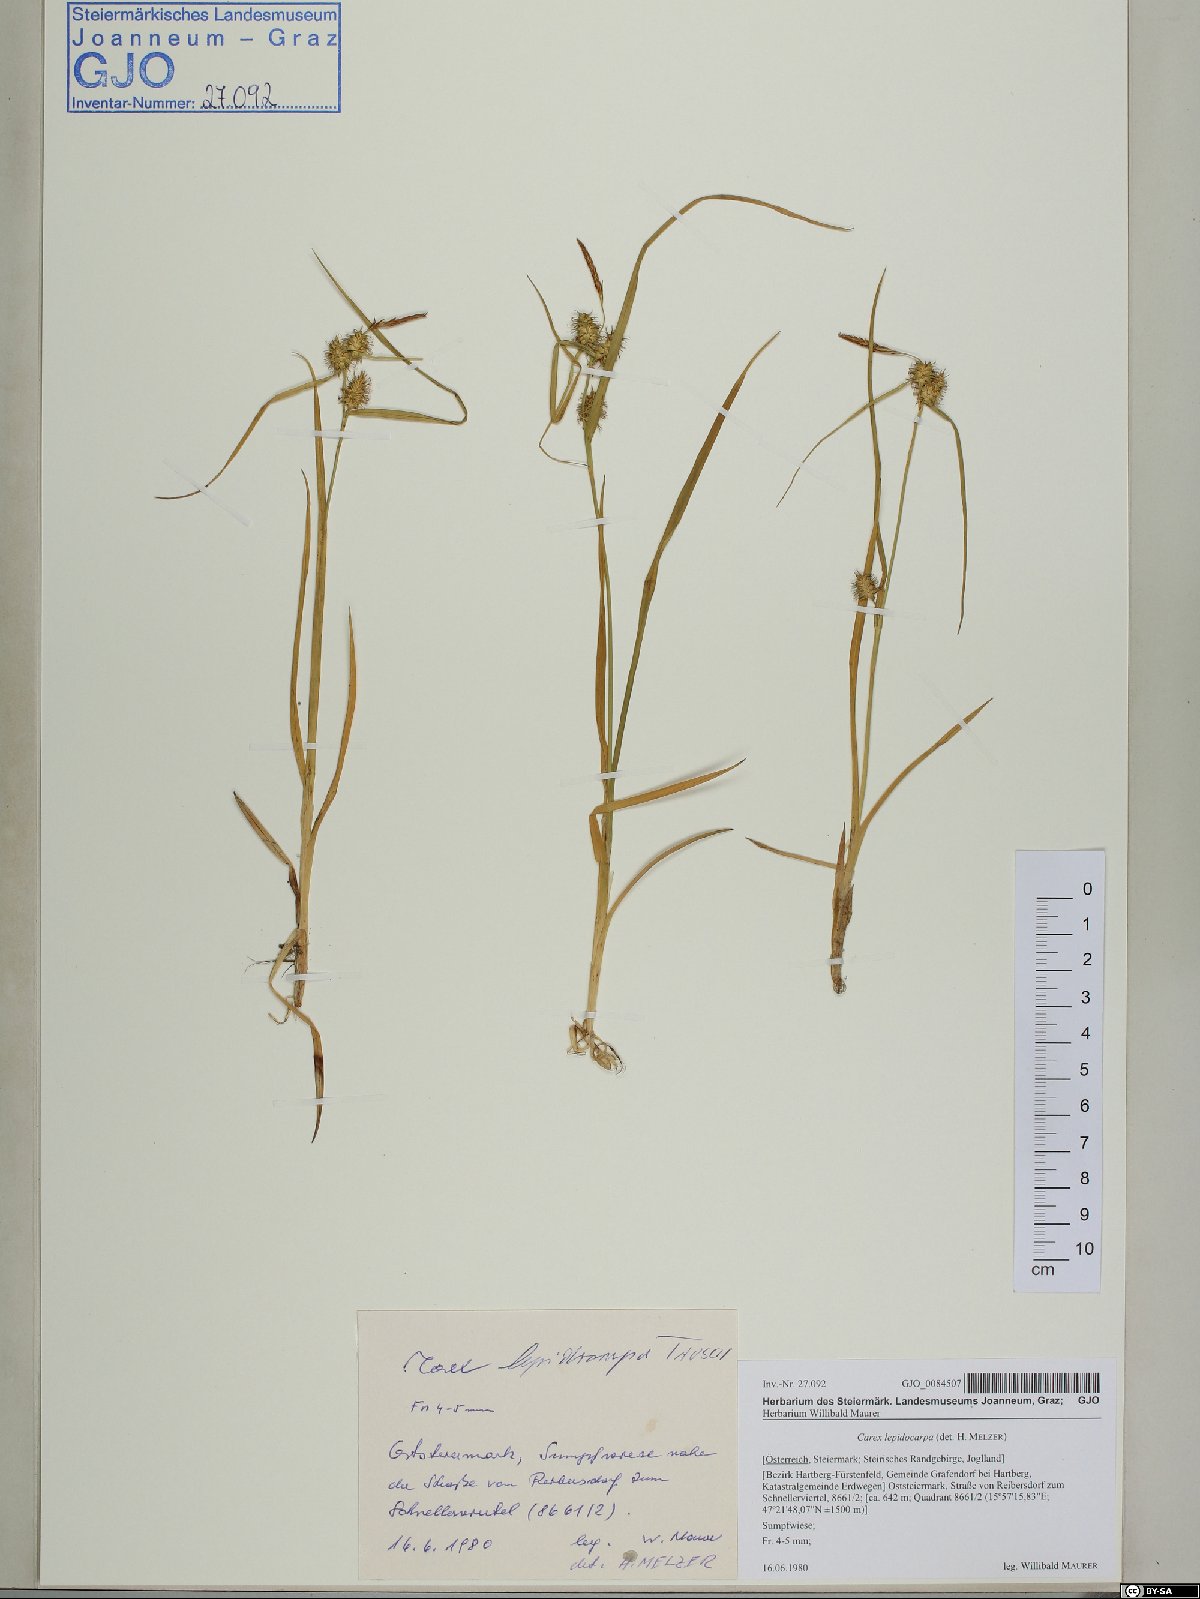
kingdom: Plantae
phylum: Tracheophyta
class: Liliopsida
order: Poales
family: Cyperaceae
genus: Carex
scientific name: Carex lepidocarpa
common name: Long-stalked yellow-sedge
